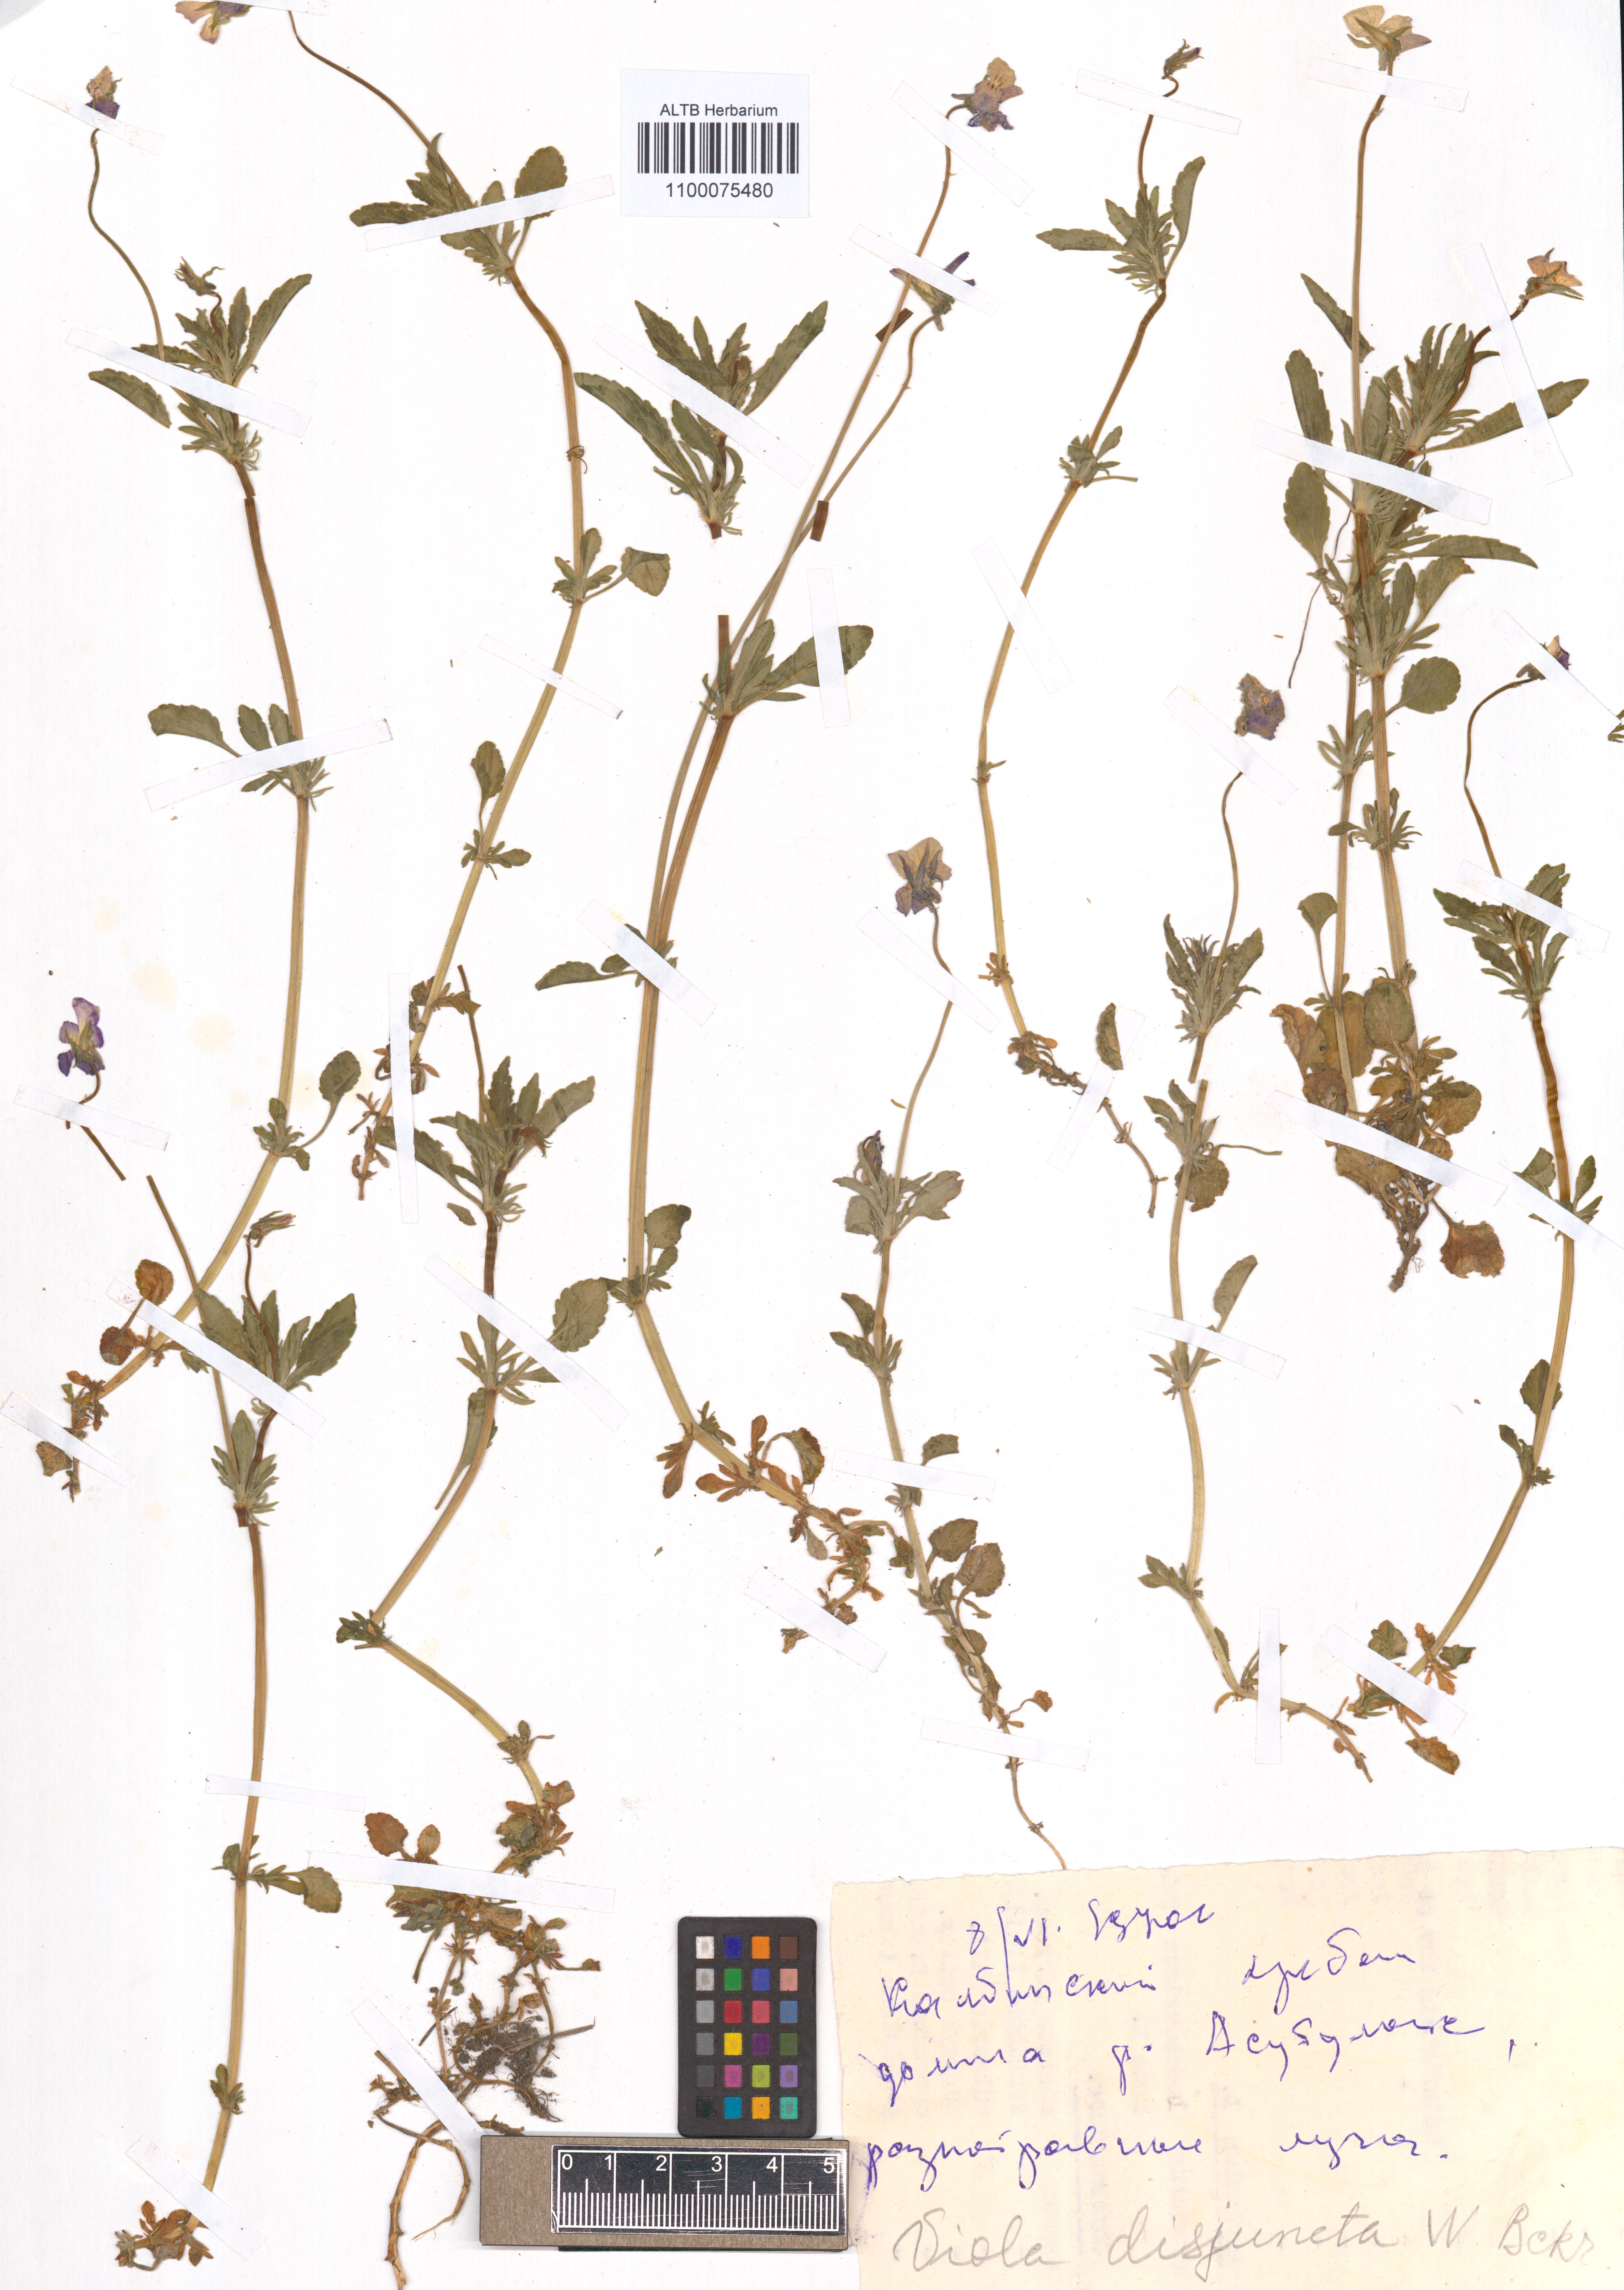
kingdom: Plantae
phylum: Tracheophyta
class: Magnoliopsida
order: Malpighiales
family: Violaceae
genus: Viola
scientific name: Viola tricolor
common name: Pansy
